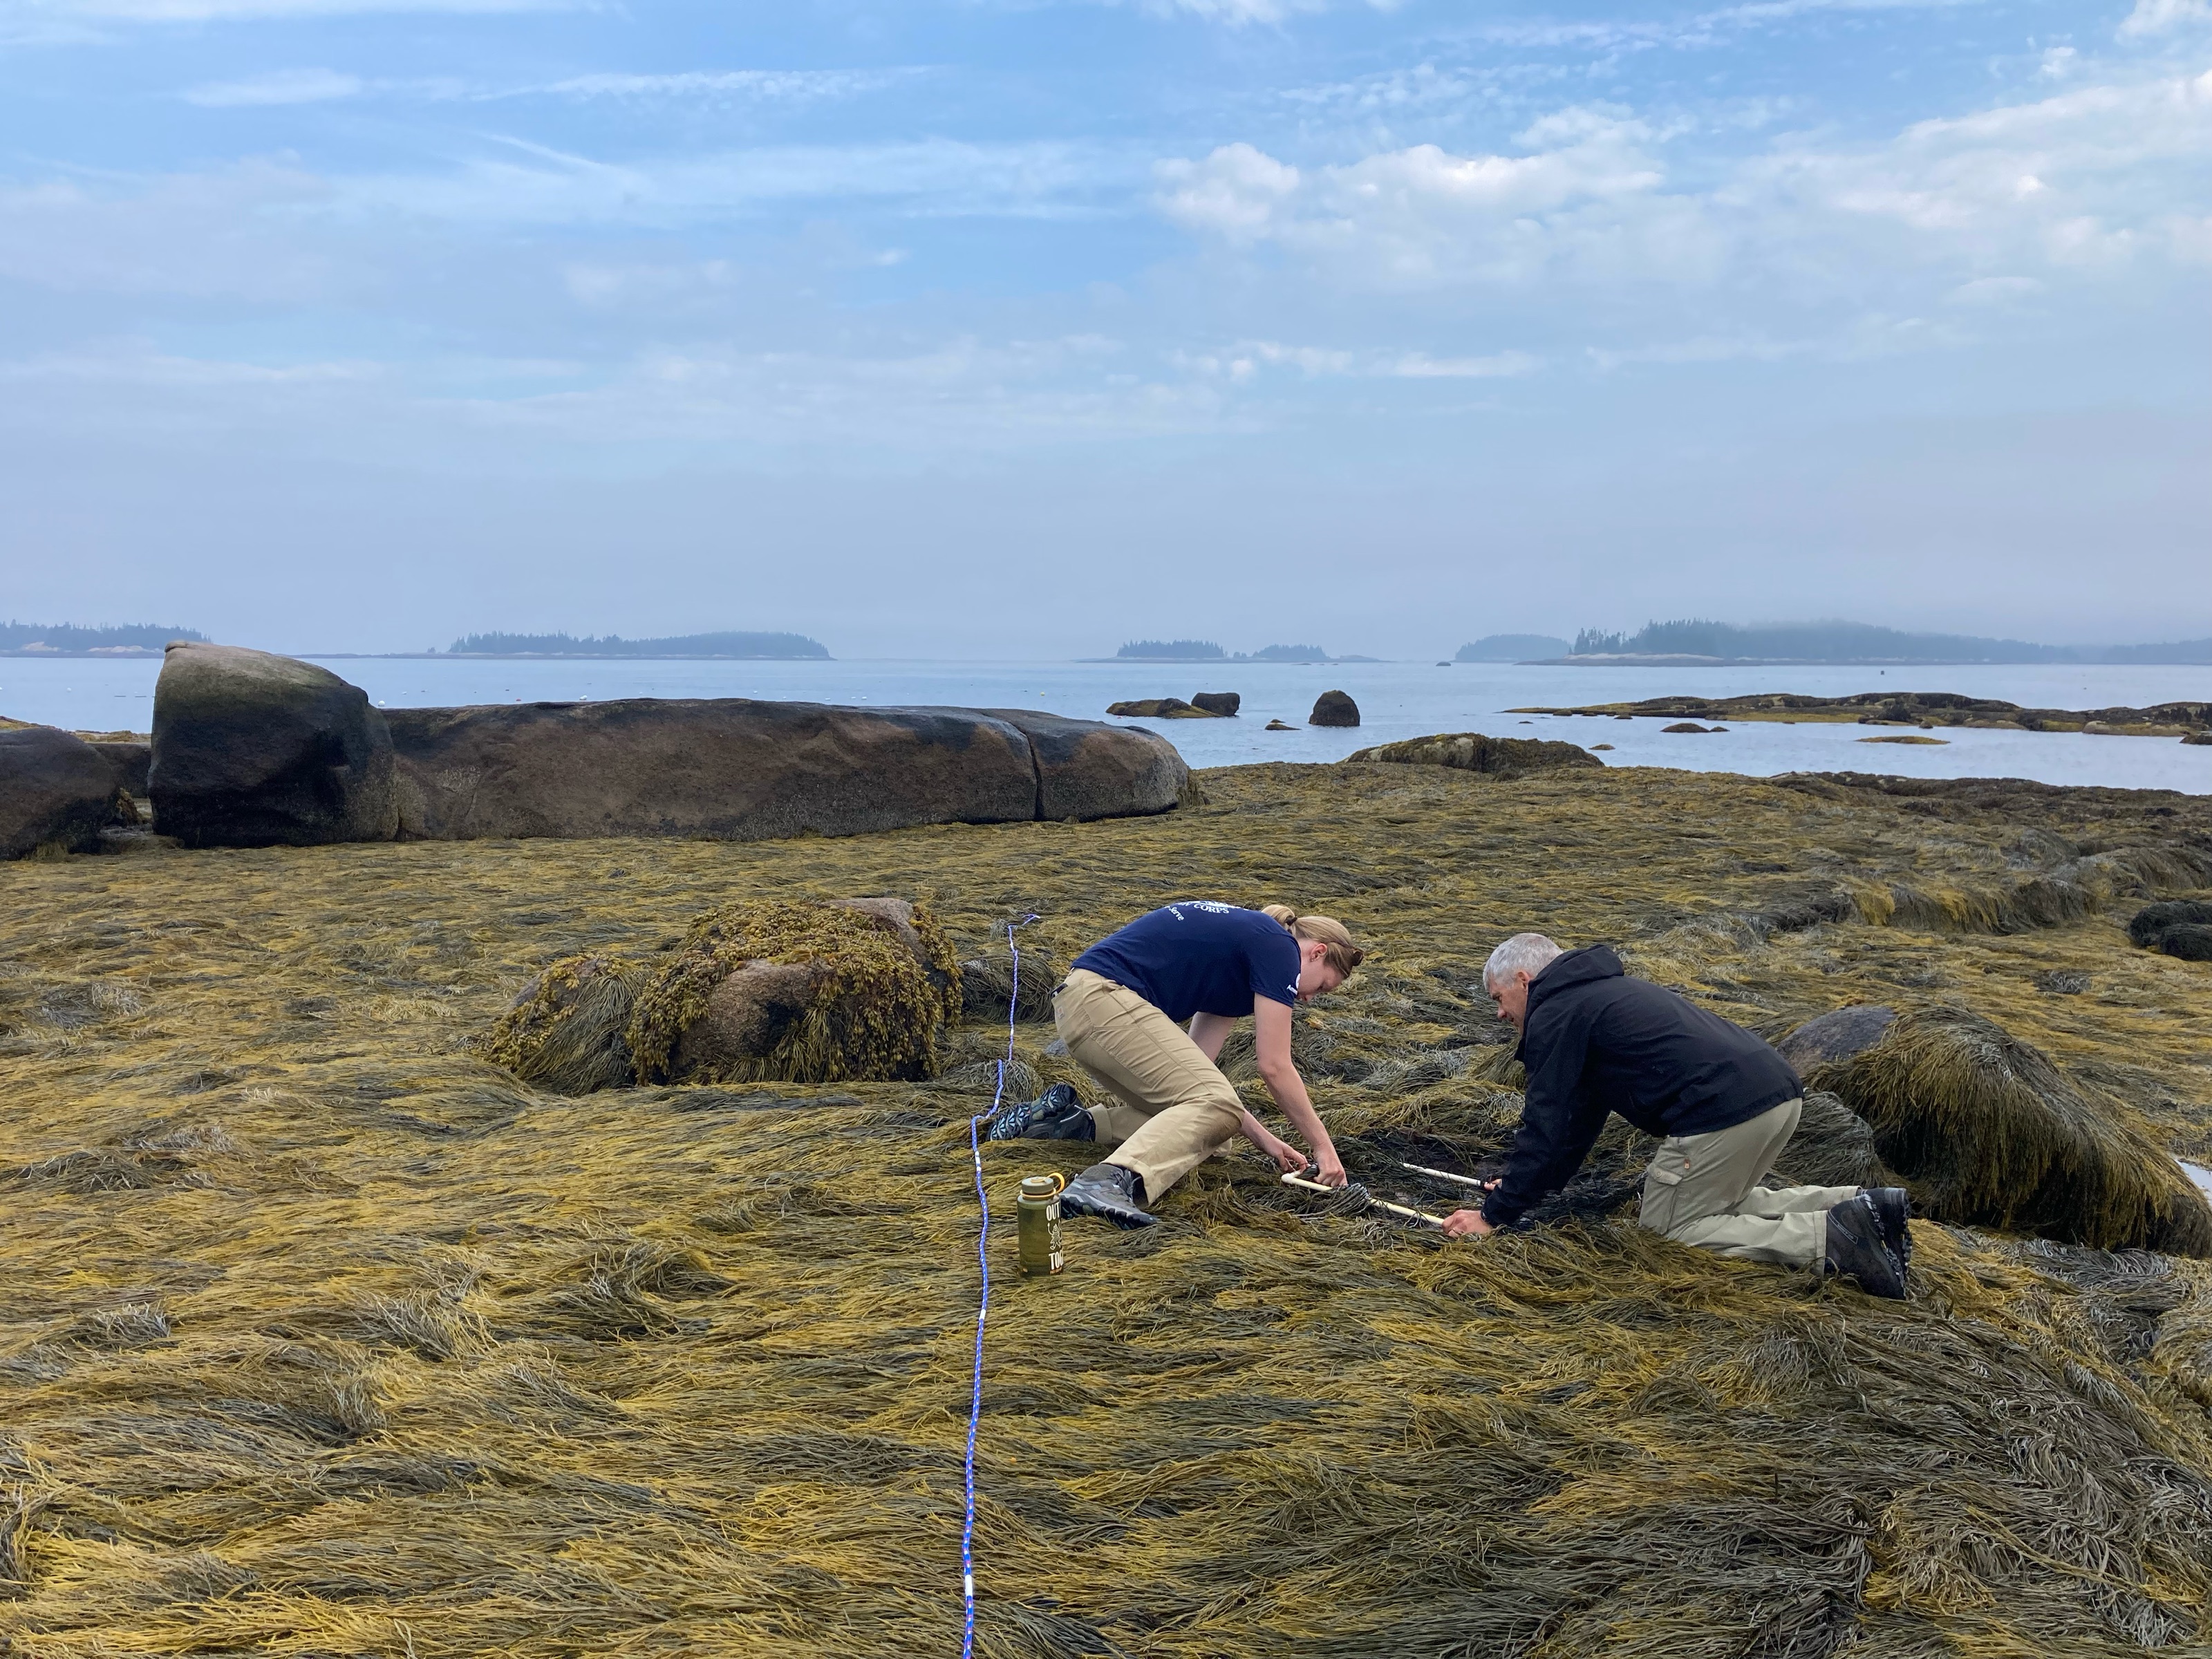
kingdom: Chromista
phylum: Ochrophyta
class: Phaeophyceae
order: Fucales
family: Fucaceae
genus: Ascophyllum
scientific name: Ascophyllum nodosum
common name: Rockweed
